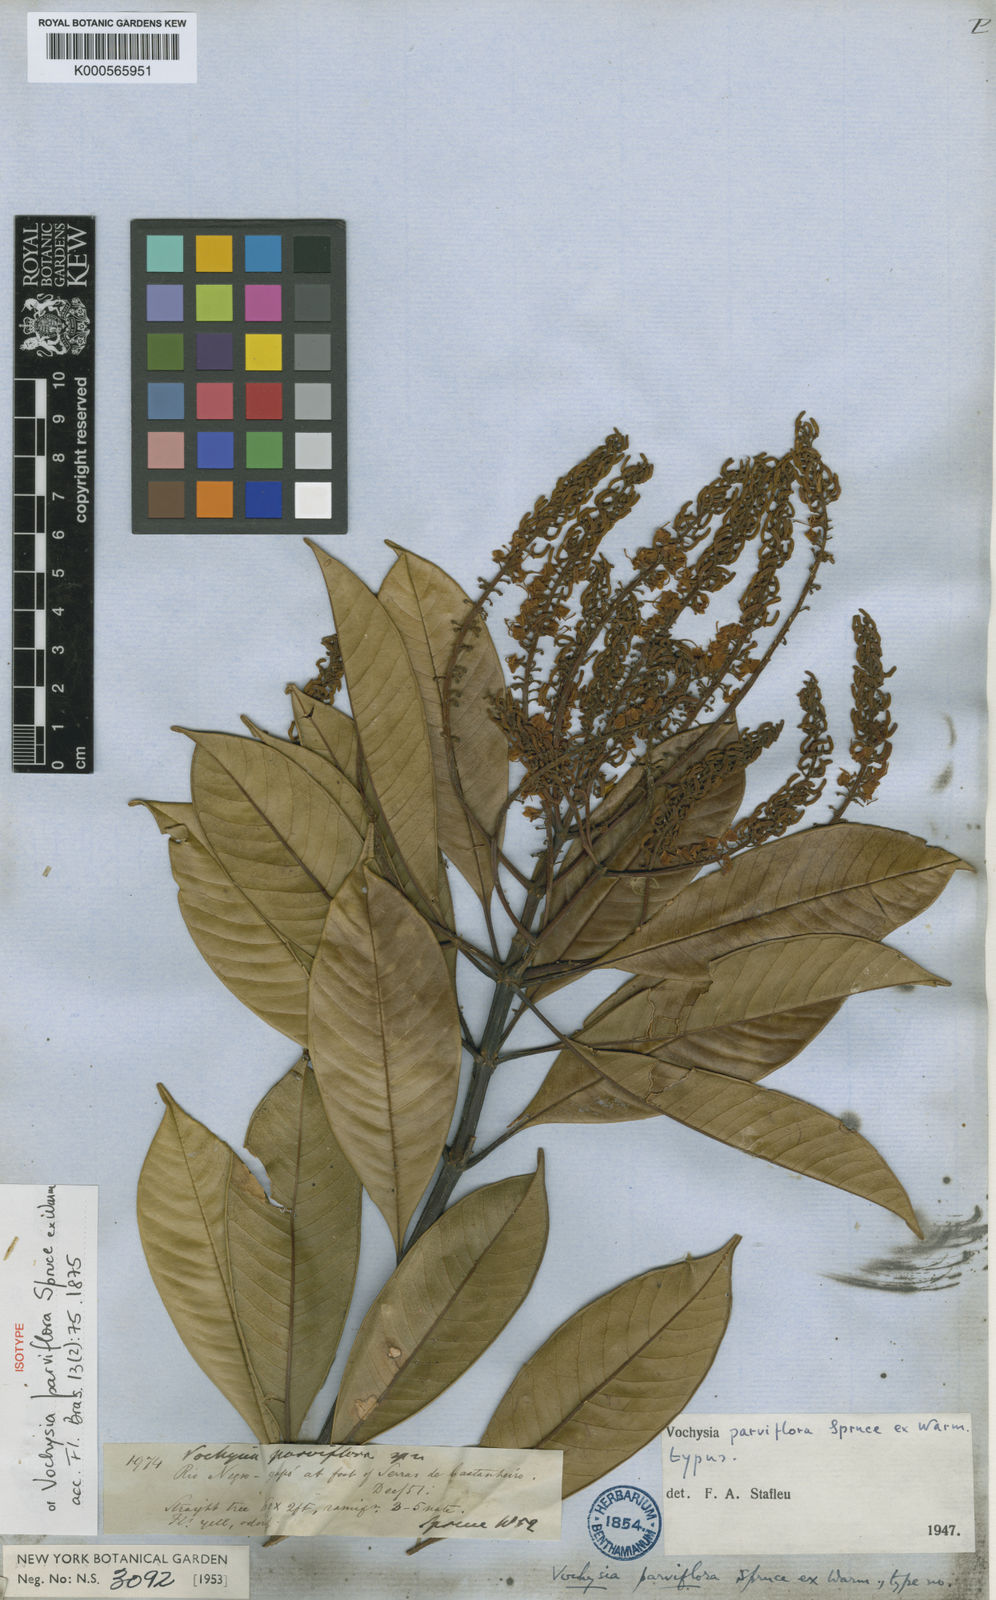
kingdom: Plantae
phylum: Tracheophyta
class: Magnoliopsida
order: Myrtales
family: Vochysiaceae
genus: Vochysia
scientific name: Vochysia parviflora
